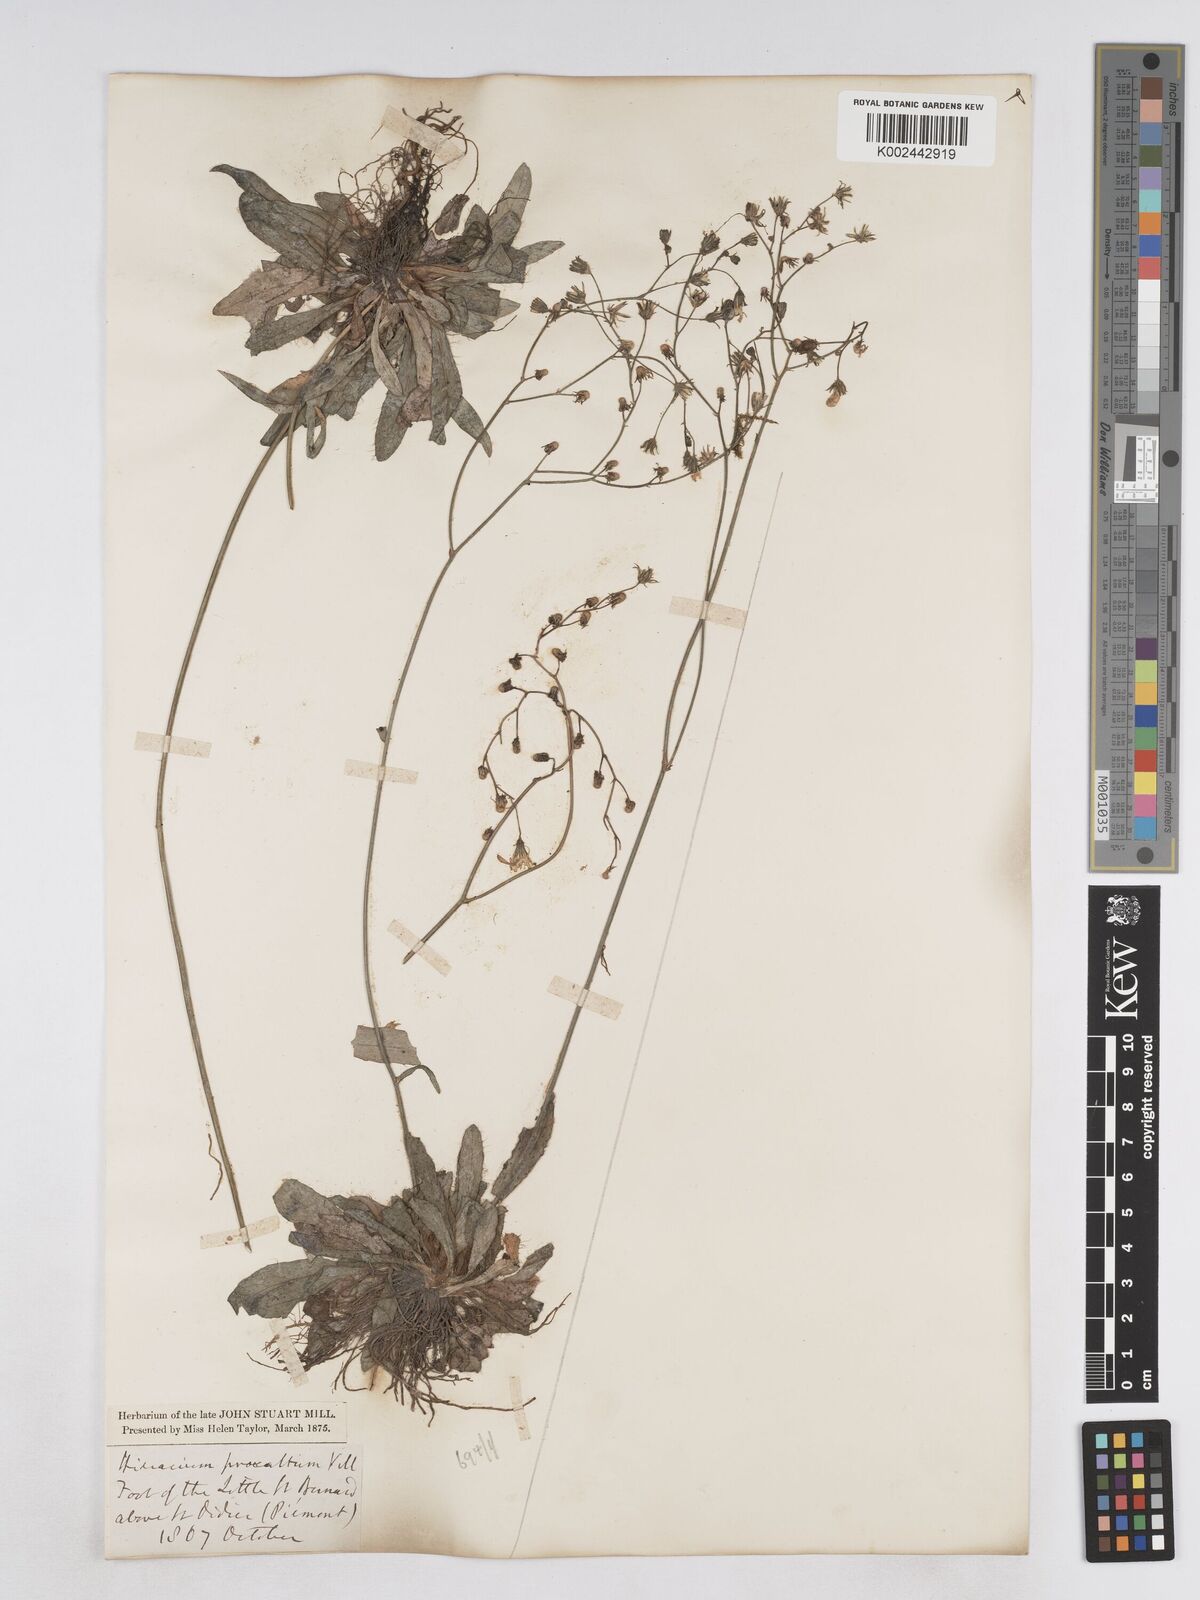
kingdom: Plantae
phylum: Tracheophyta
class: Magnoliopsida
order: Asterales
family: Asteraceae
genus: Pilosella
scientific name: Pilosella pavichii
